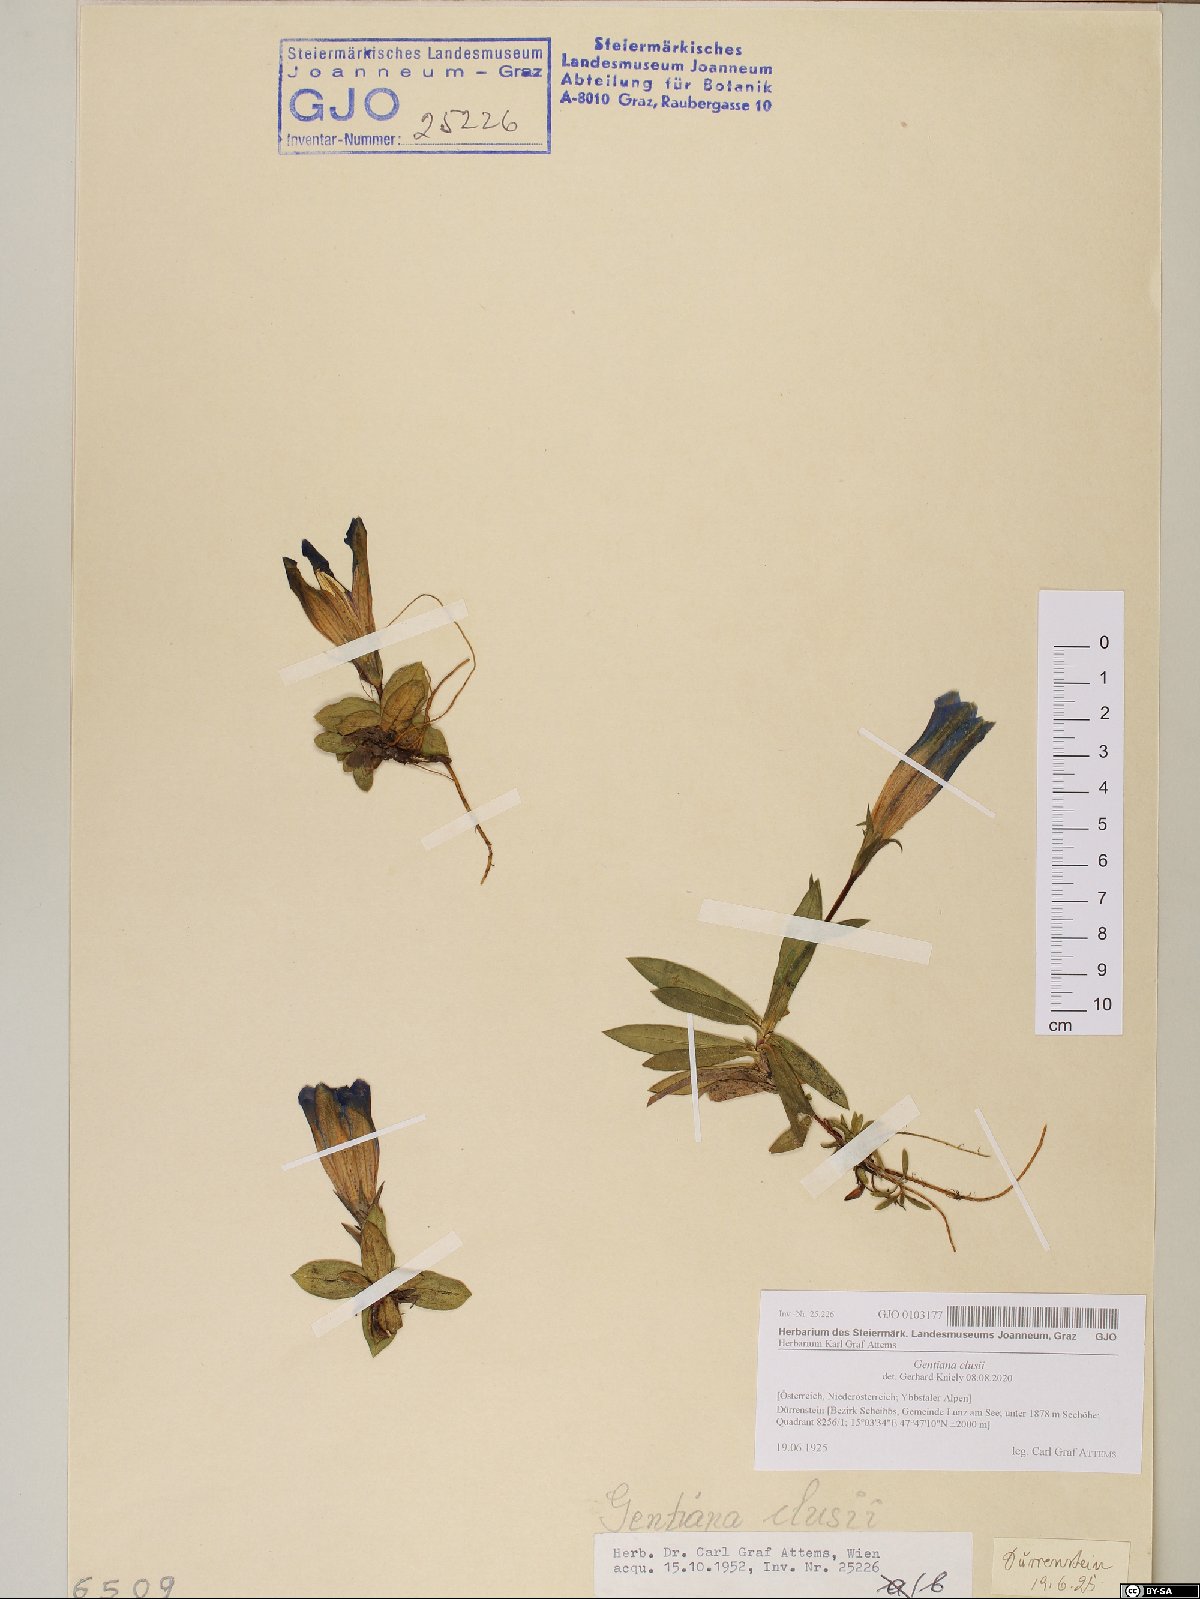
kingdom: Plantae
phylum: Tracheophyta
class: Magnoliopsida
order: Gentianales
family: Gentianaceae
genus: Gentiana
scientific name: Gentiana clusii
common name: Trumpet gentian
